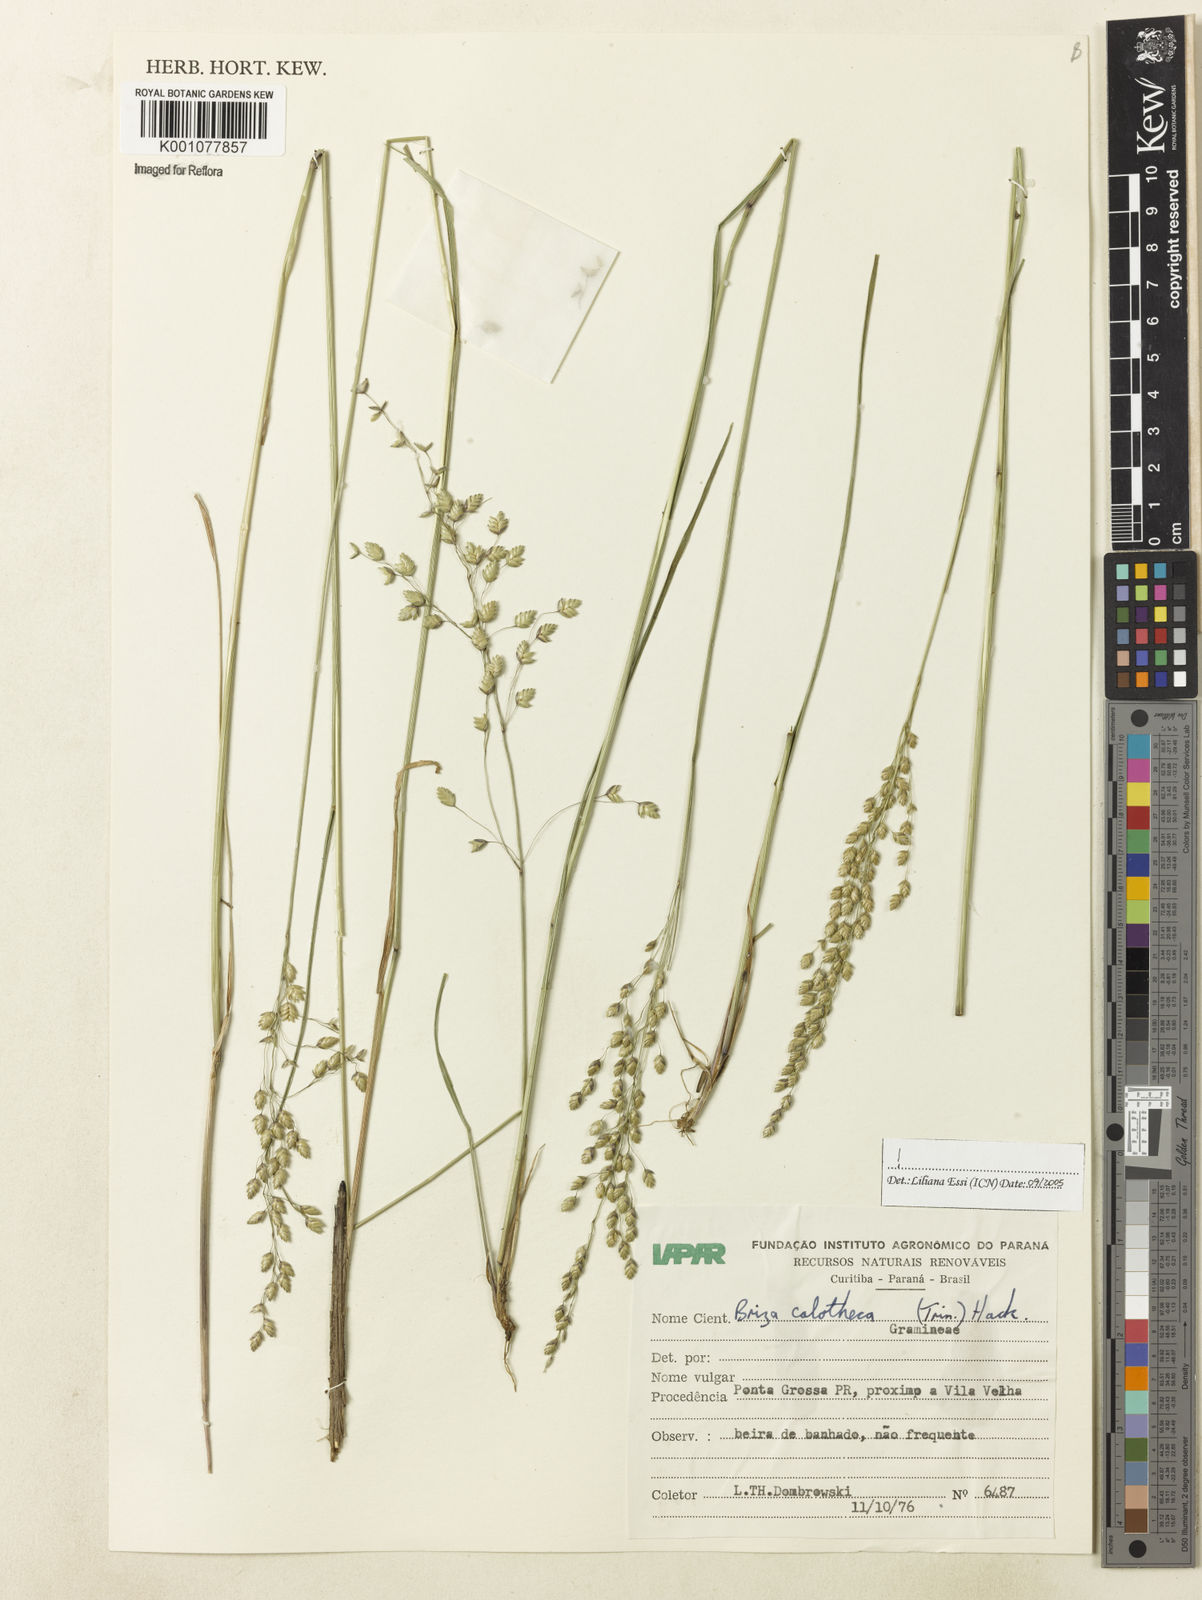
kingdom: Plantae
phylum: Tracheophyta
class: Liliopsida
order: Poales
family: Poaceae
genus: Poidium
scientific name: Poidium calotheca
